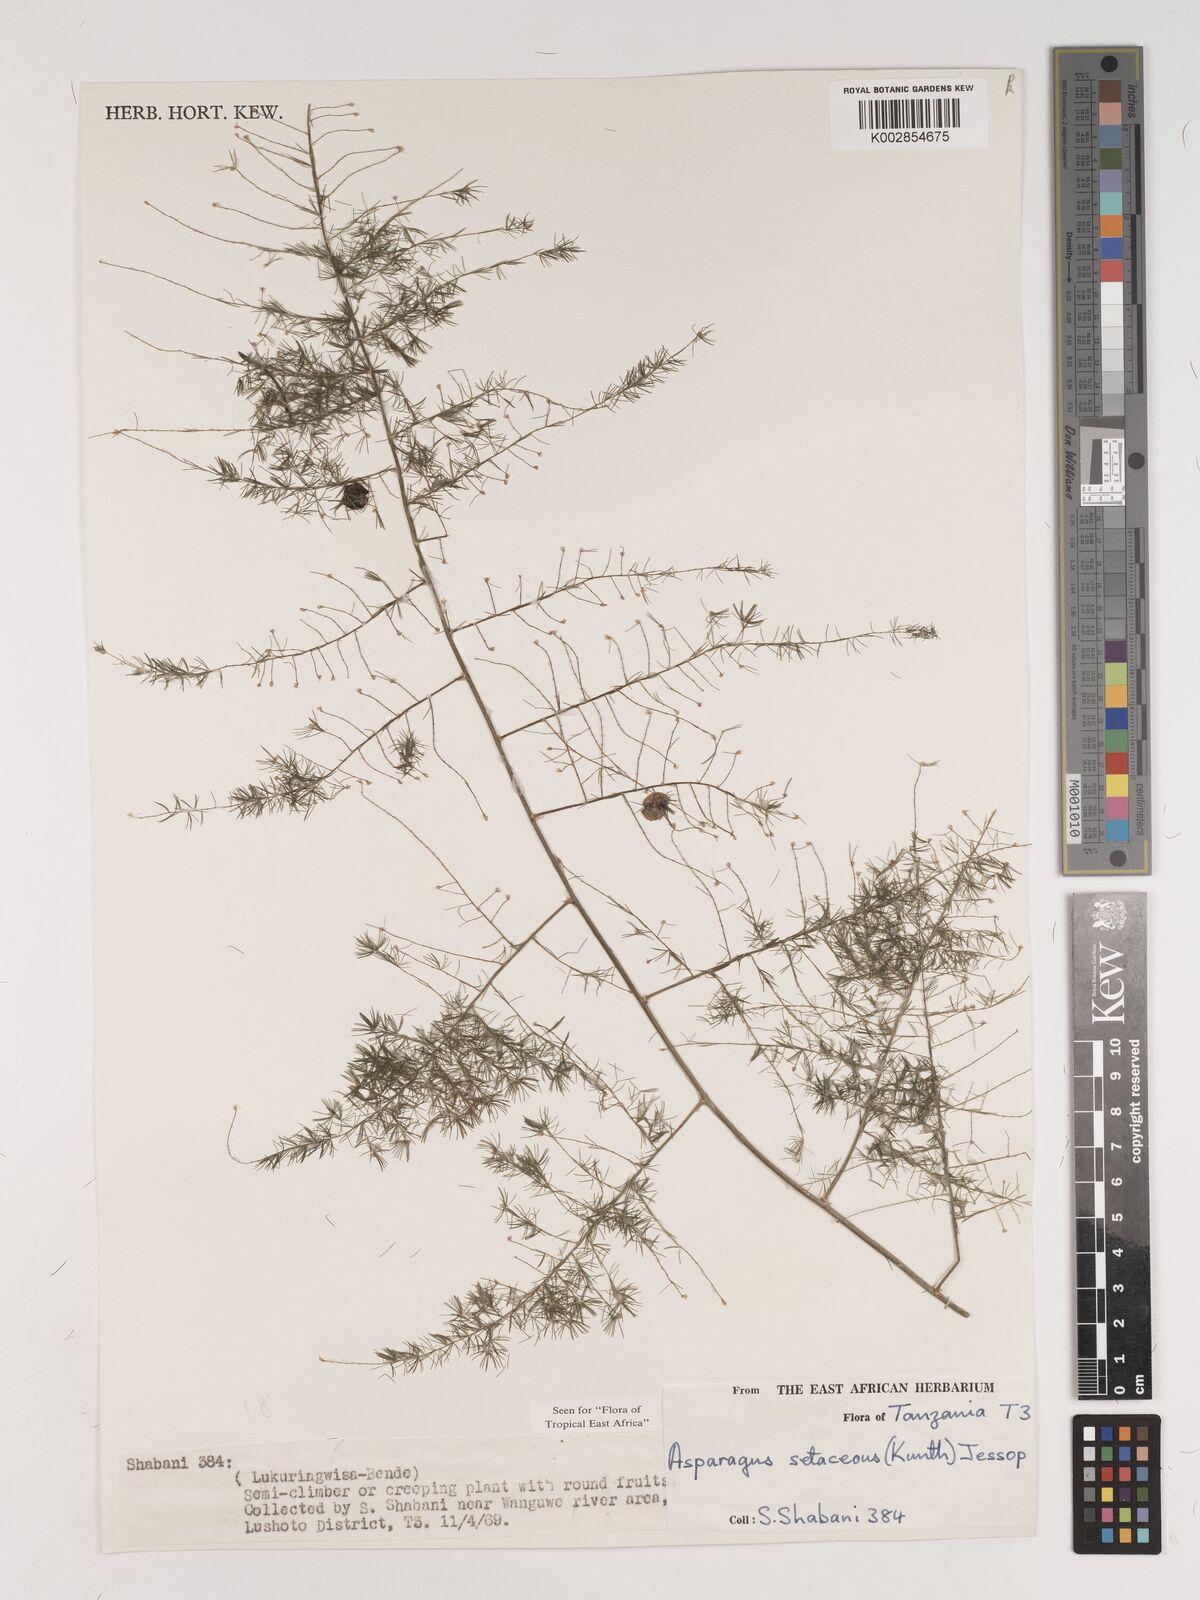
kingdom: Plantae
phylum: Tracheophyta
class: Liliopsida
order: Asparagales
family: Asparagaceae
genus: Asparagus
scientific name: Asparagus setaceus
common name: Common asparagus fern
